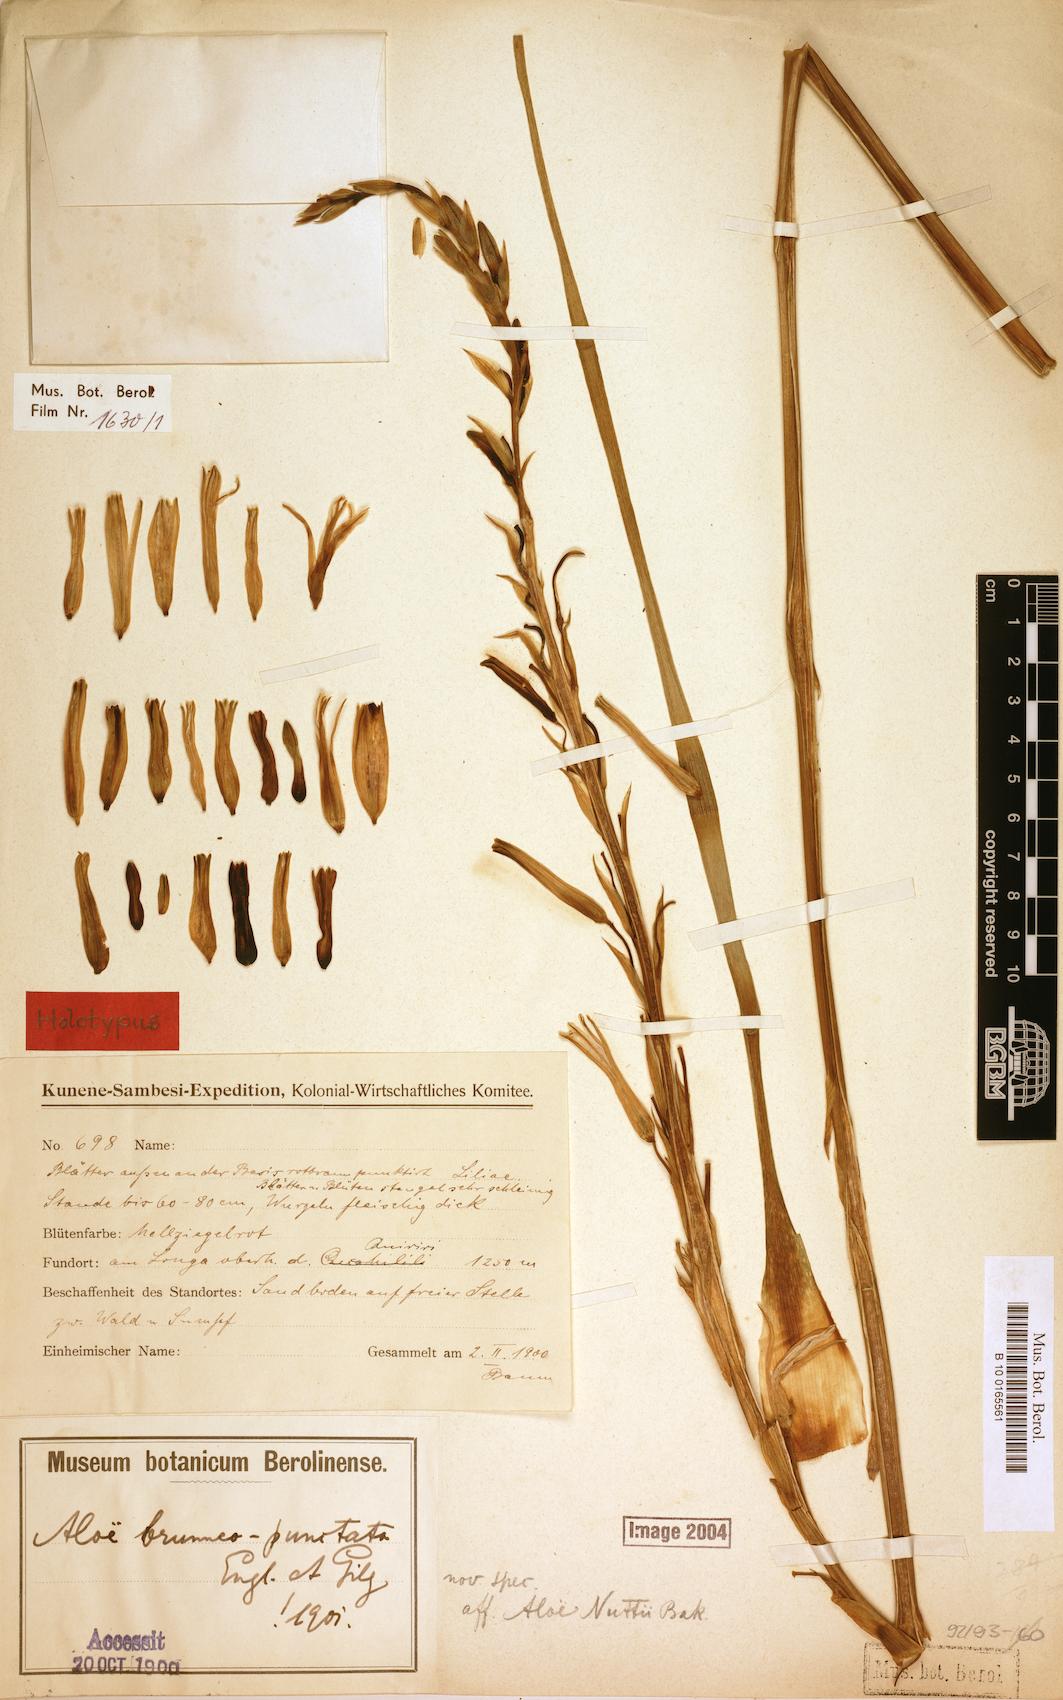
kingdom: Plantae
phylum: Tracheophyta
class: Liliopsida
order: Asparagales
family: Asphodelaceae
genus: Aloe
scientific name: Aloe nuttii
